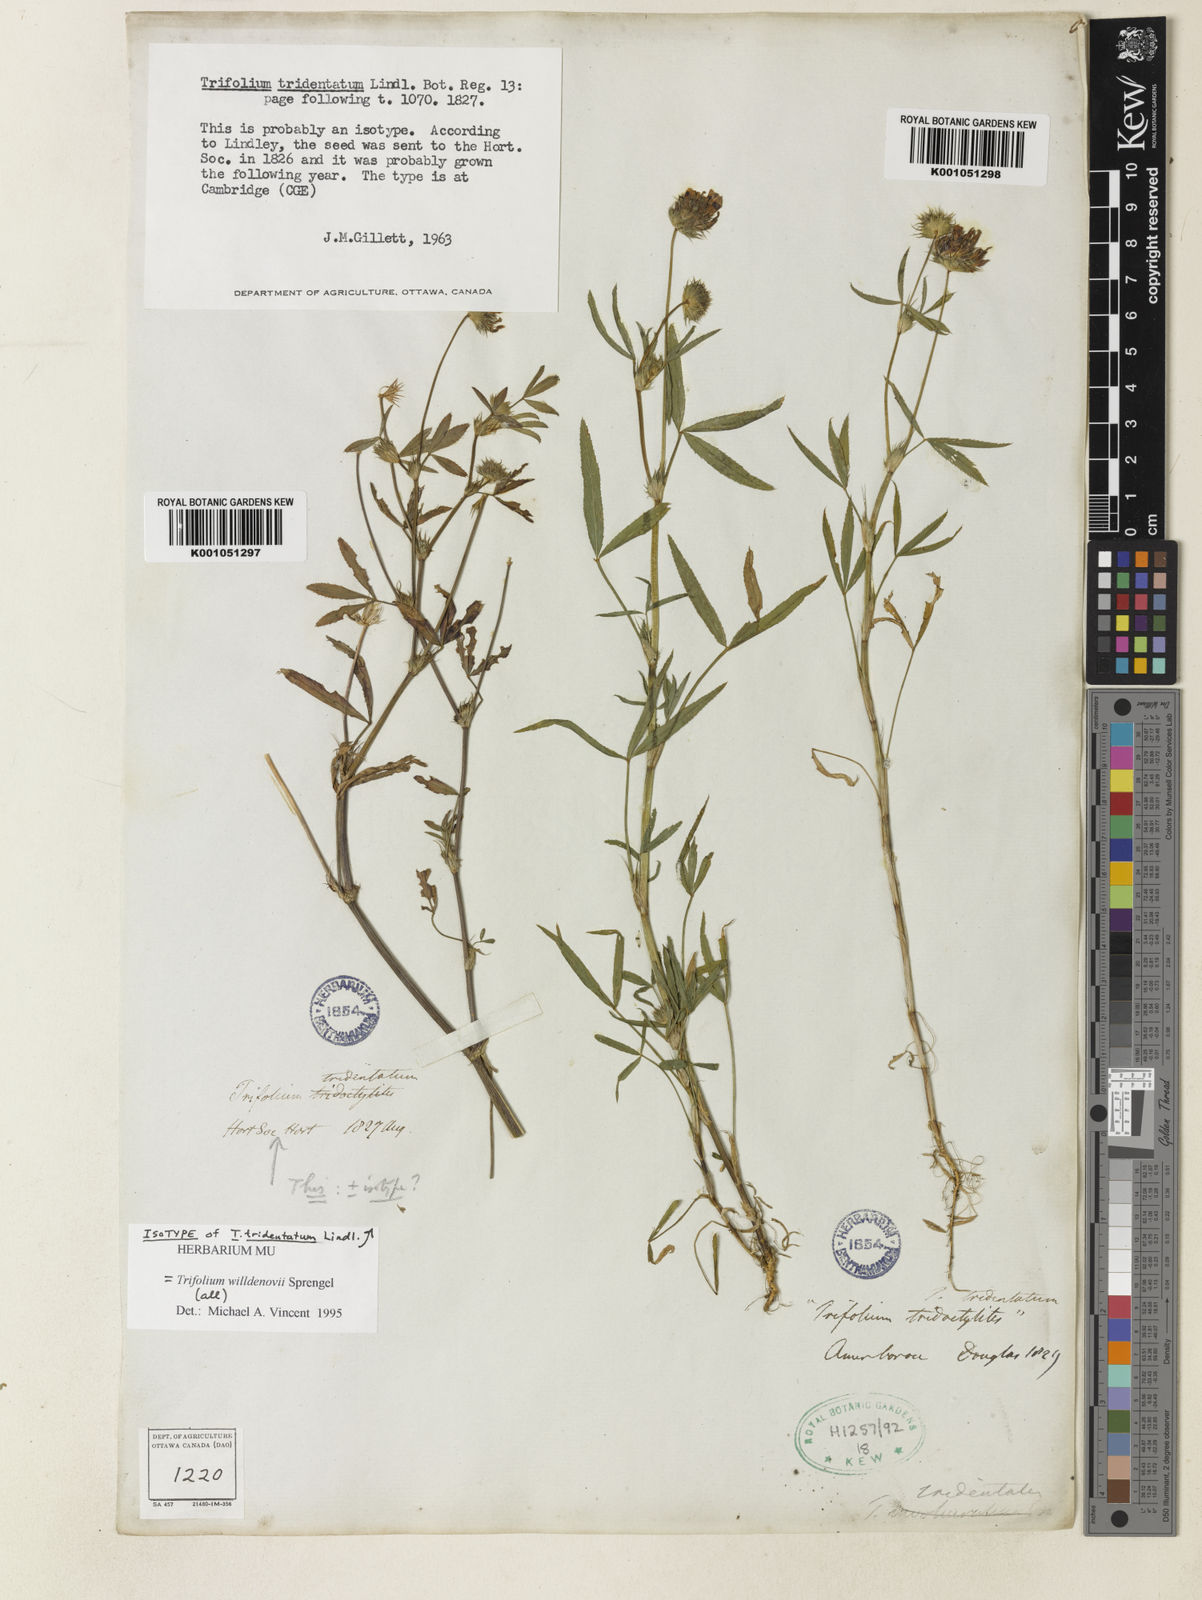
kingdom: Plantae
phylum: Tracheophyta
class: Magnoliopsida
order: Fabales
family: Fabaceae
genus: Trifolium
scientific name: Trifolium willdenovii
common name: Tomcat clover
